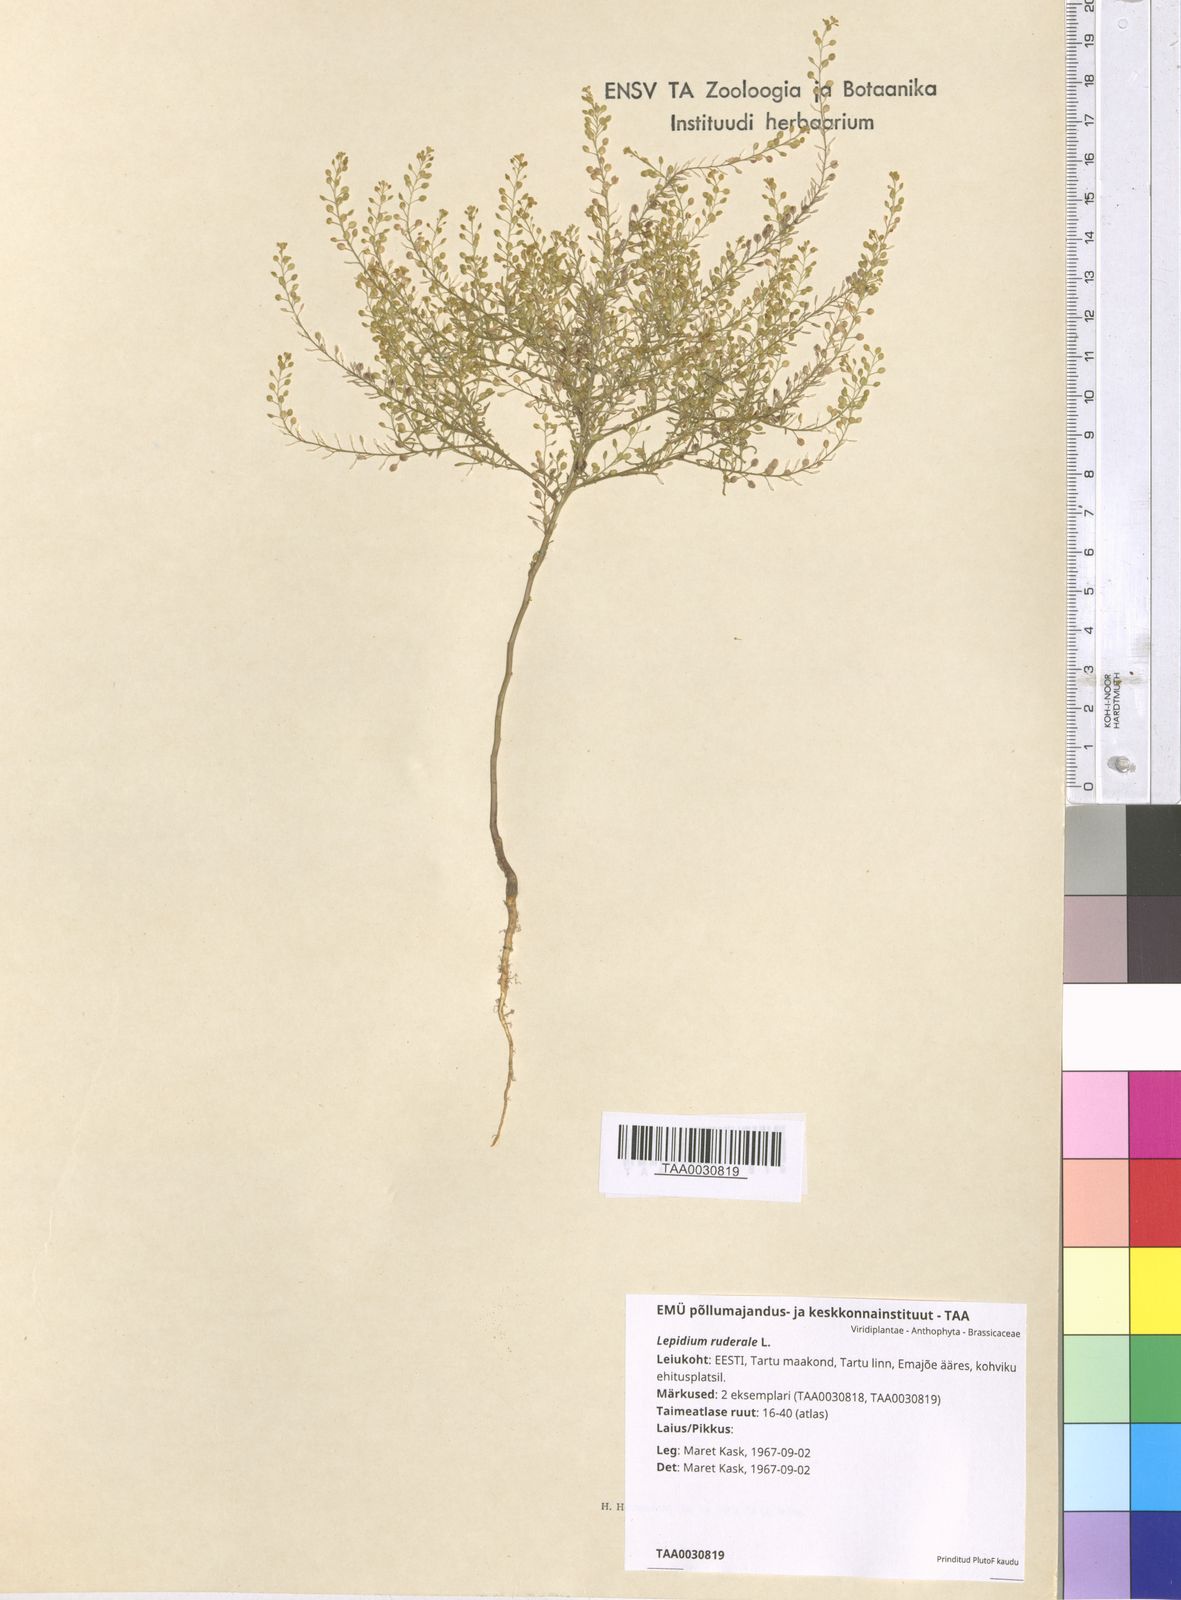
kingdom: Plantae
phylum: Tracheophyta
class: Magnoliopsida
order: Brassicales
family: Brassicaceae
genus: Lepidium
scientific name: Lepidium ruderale
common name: Narrow-leaved pepperwort
